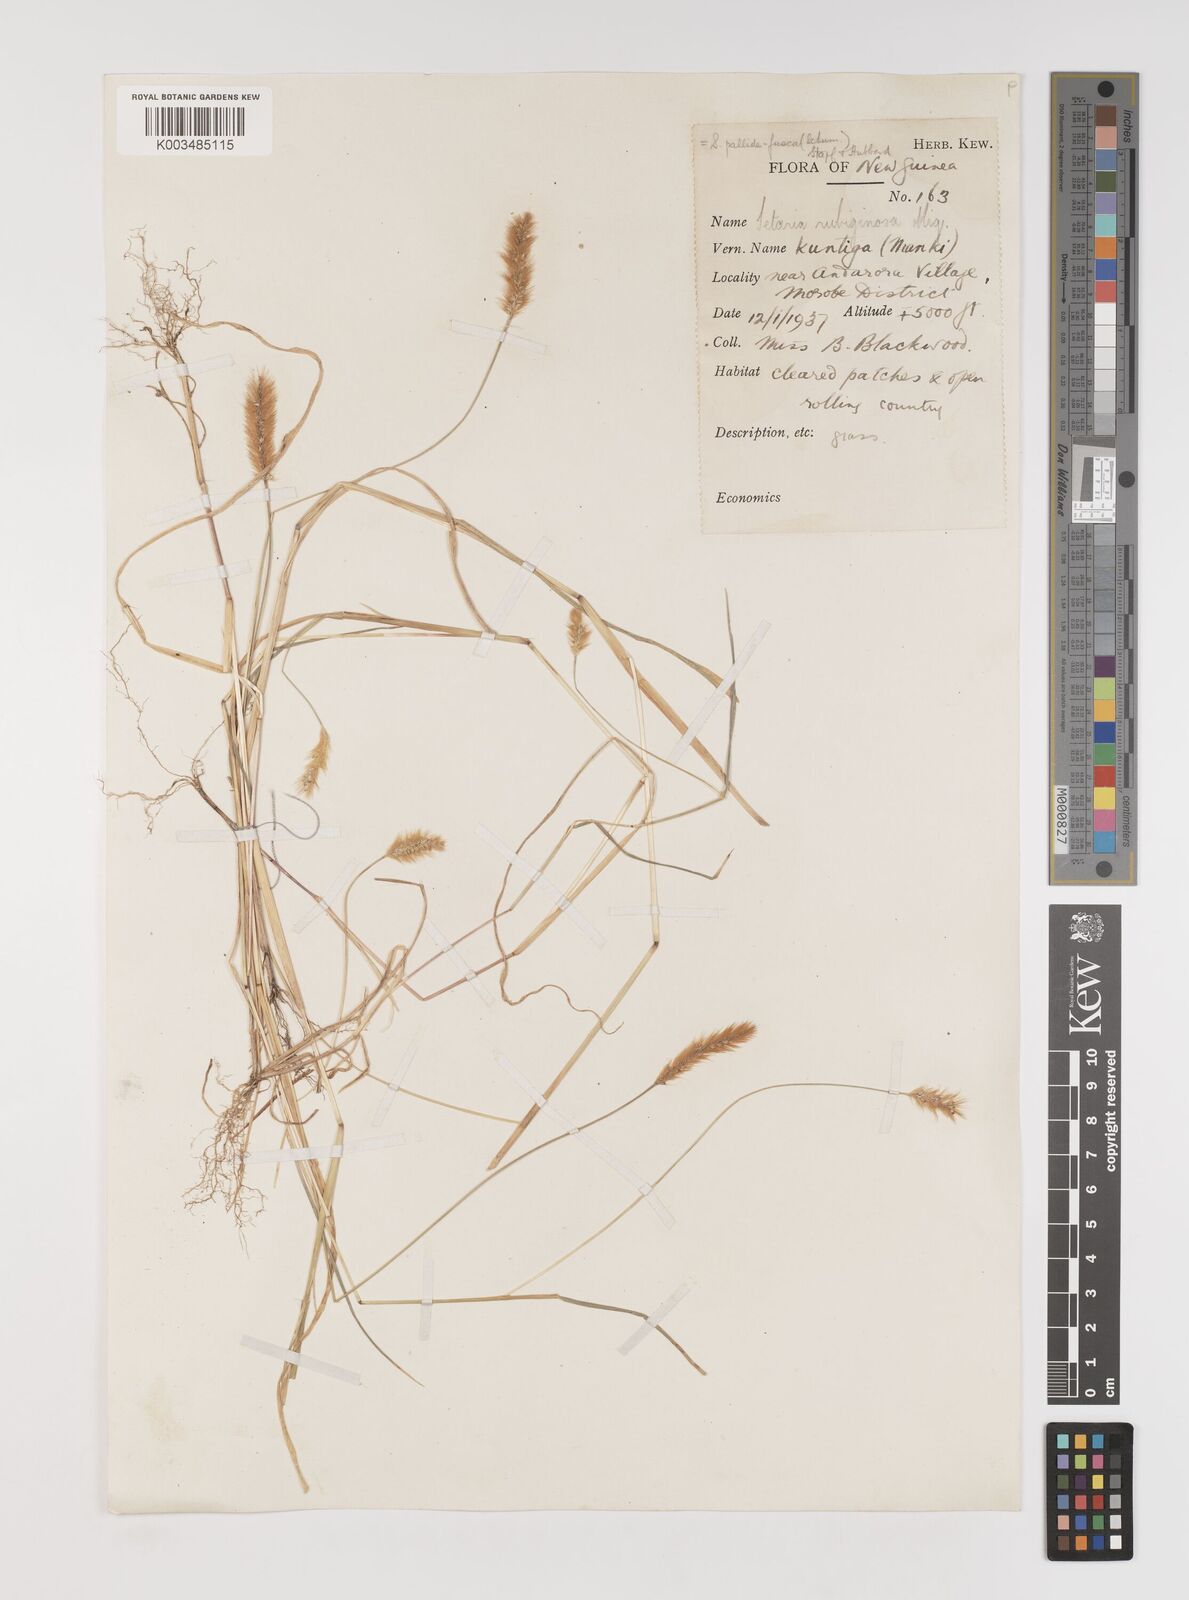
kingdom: Plantae
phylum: Tracheophyta
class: Liliopsida
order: Poales
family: Poaceae
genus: Setaria
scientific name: Setaria parviflora
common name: Knotroot bristle-grass
